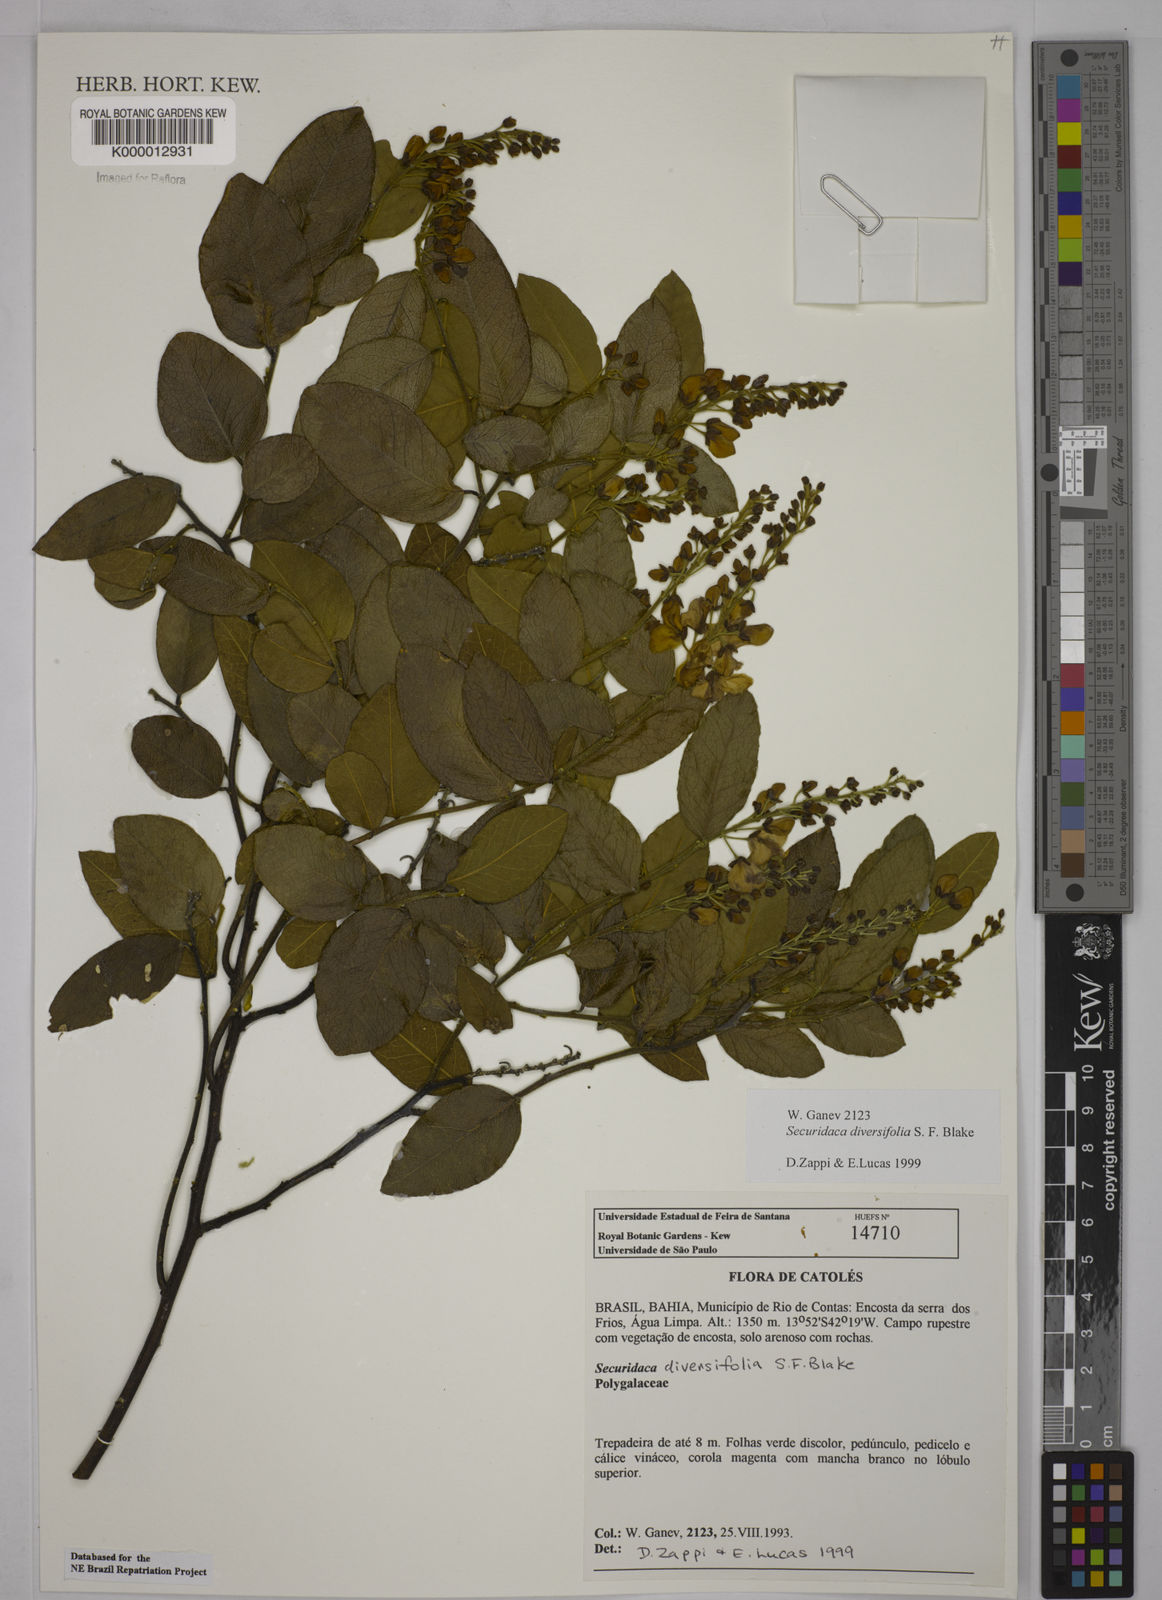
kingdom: Plantae
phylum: Tracheophyta
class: Magnoliopsida
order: Fabales
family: Polygalaceae
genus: Securidaca
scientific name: Securidaca
